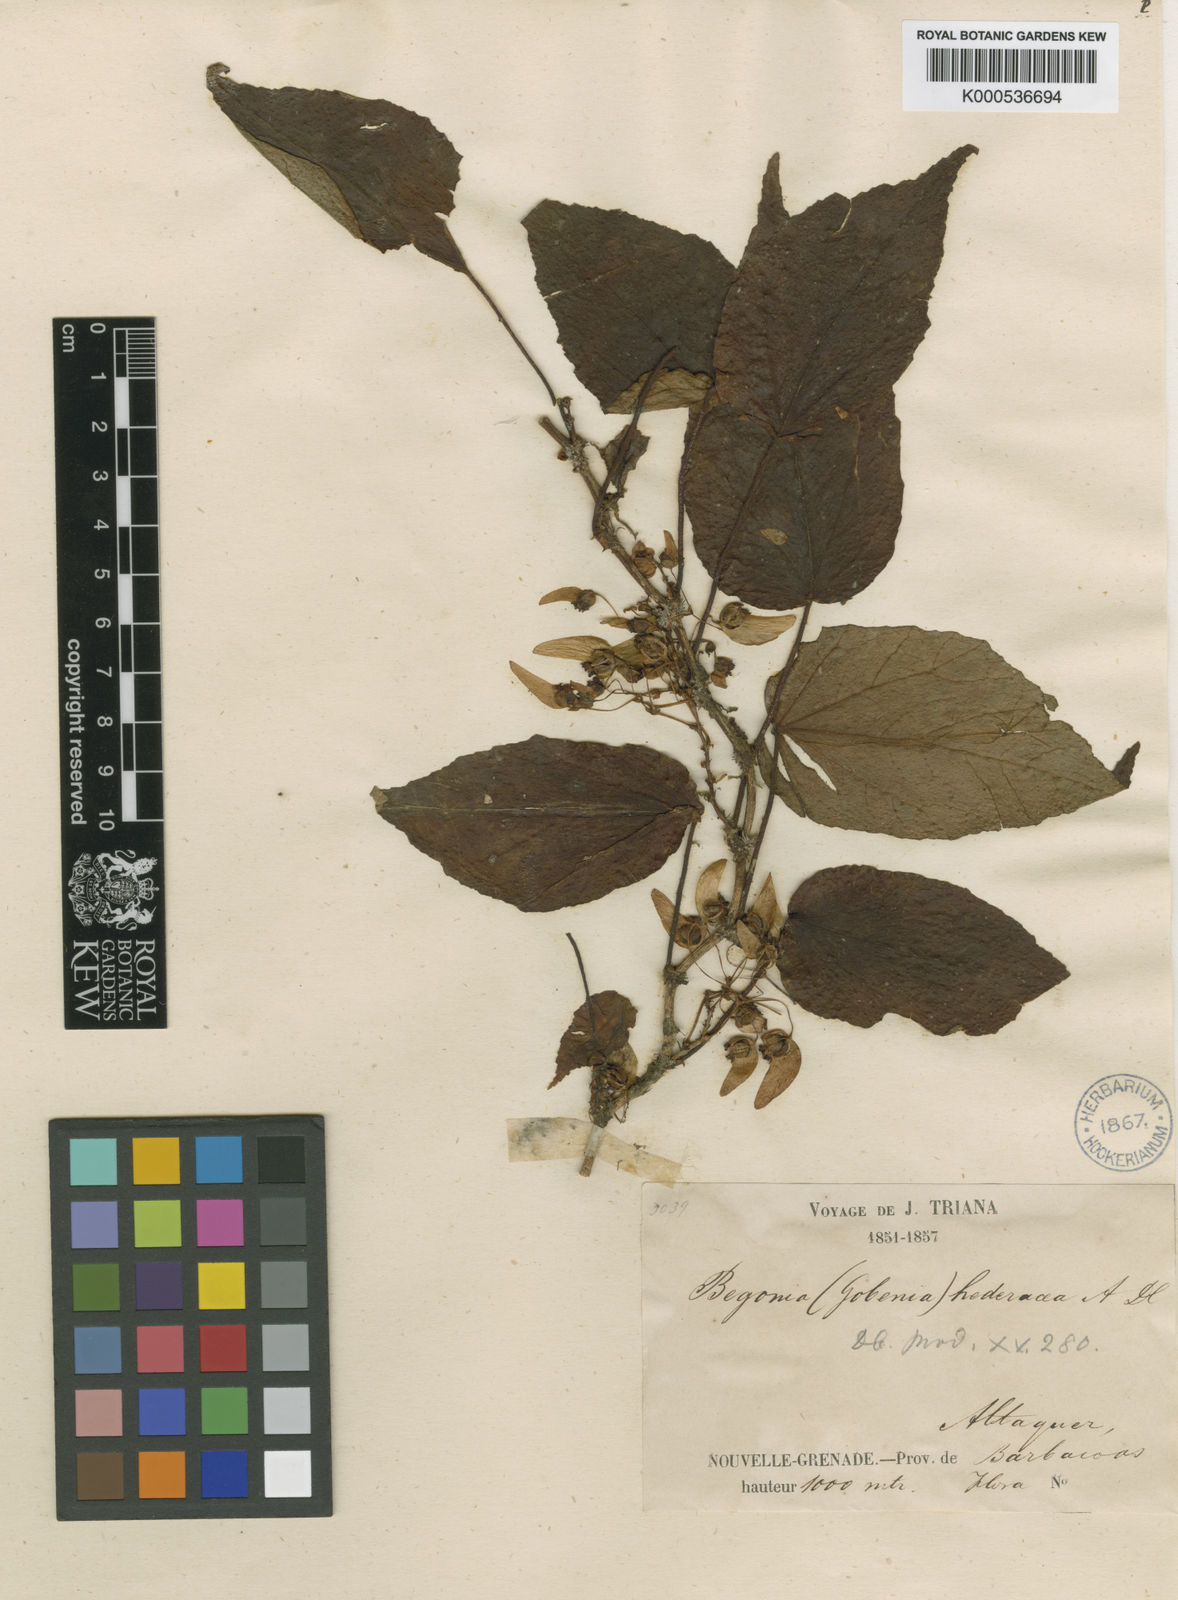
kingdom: Plantae
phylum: Tracheophyta
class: Magnoliopsida
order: Cucurbitales
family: Begoniaceae
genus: Begonia
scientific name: Begonia maurandiae
